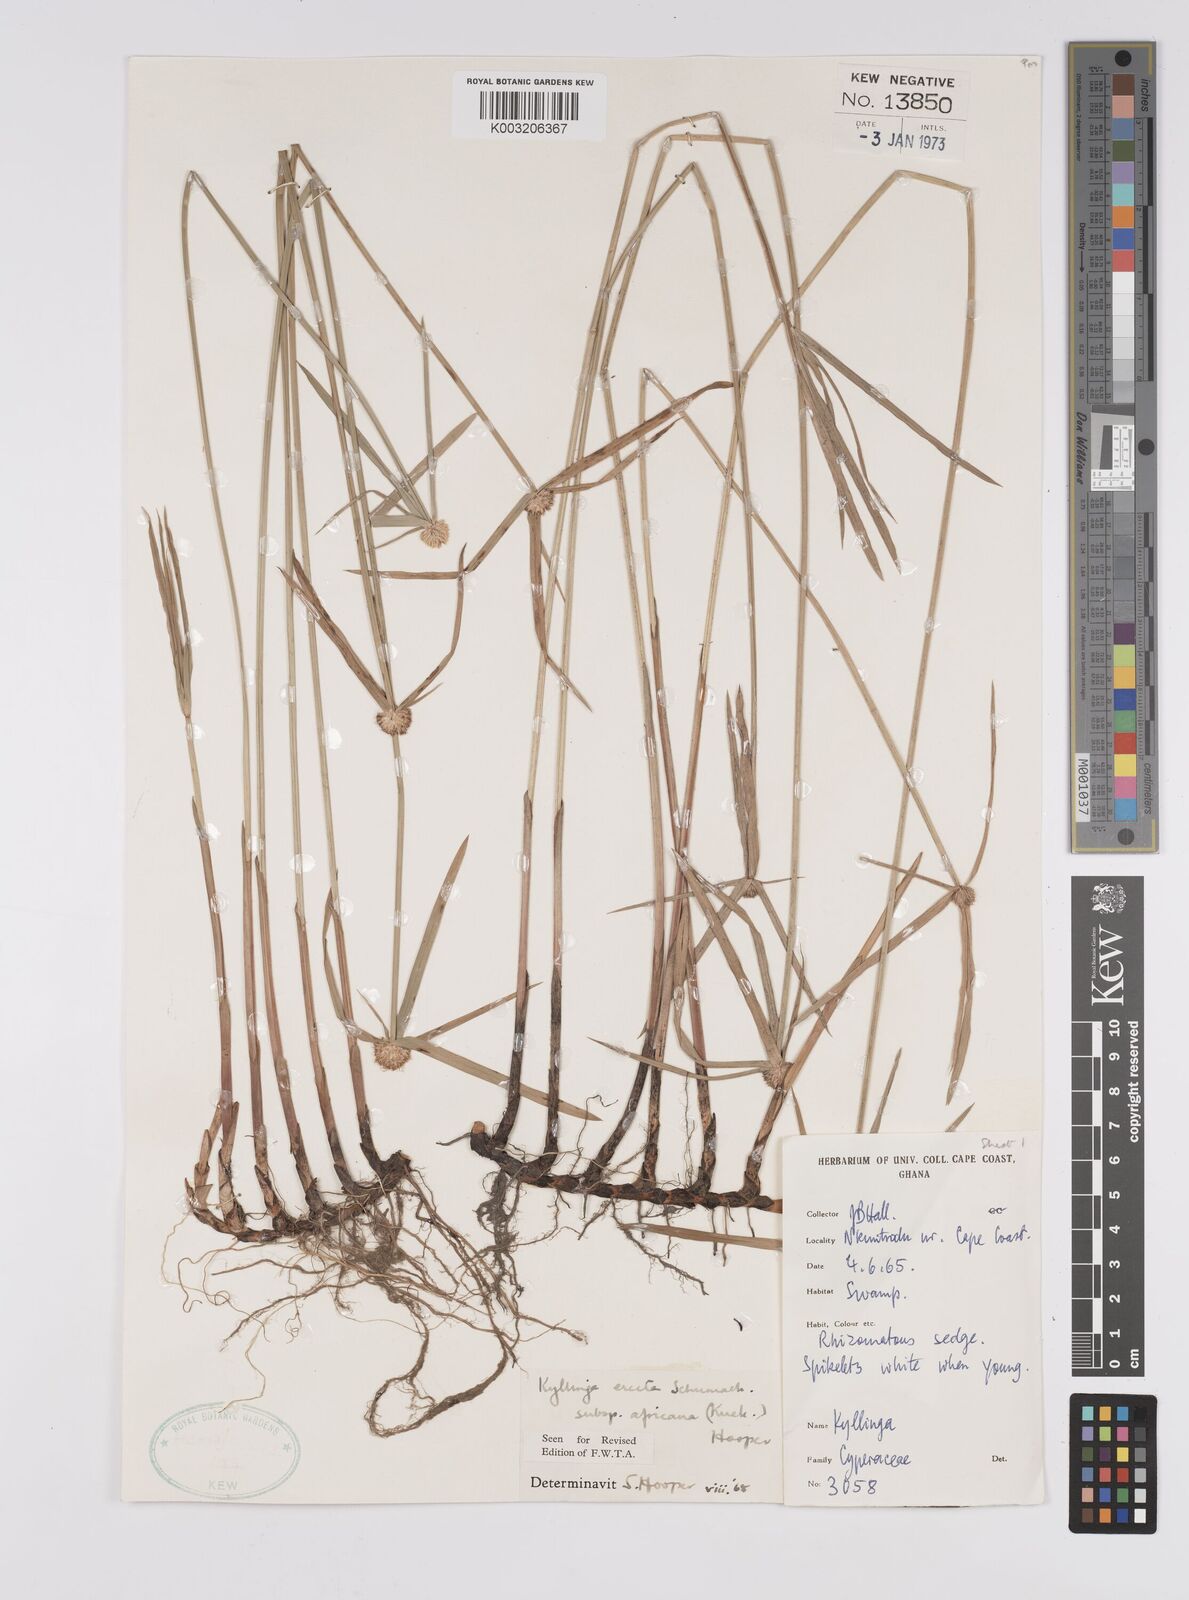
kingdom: Plantae
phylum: Tracheophyta
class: Liliopsida
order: Poales
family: Cyperaceae
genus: Cyperus
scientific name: Cyperus erectus
